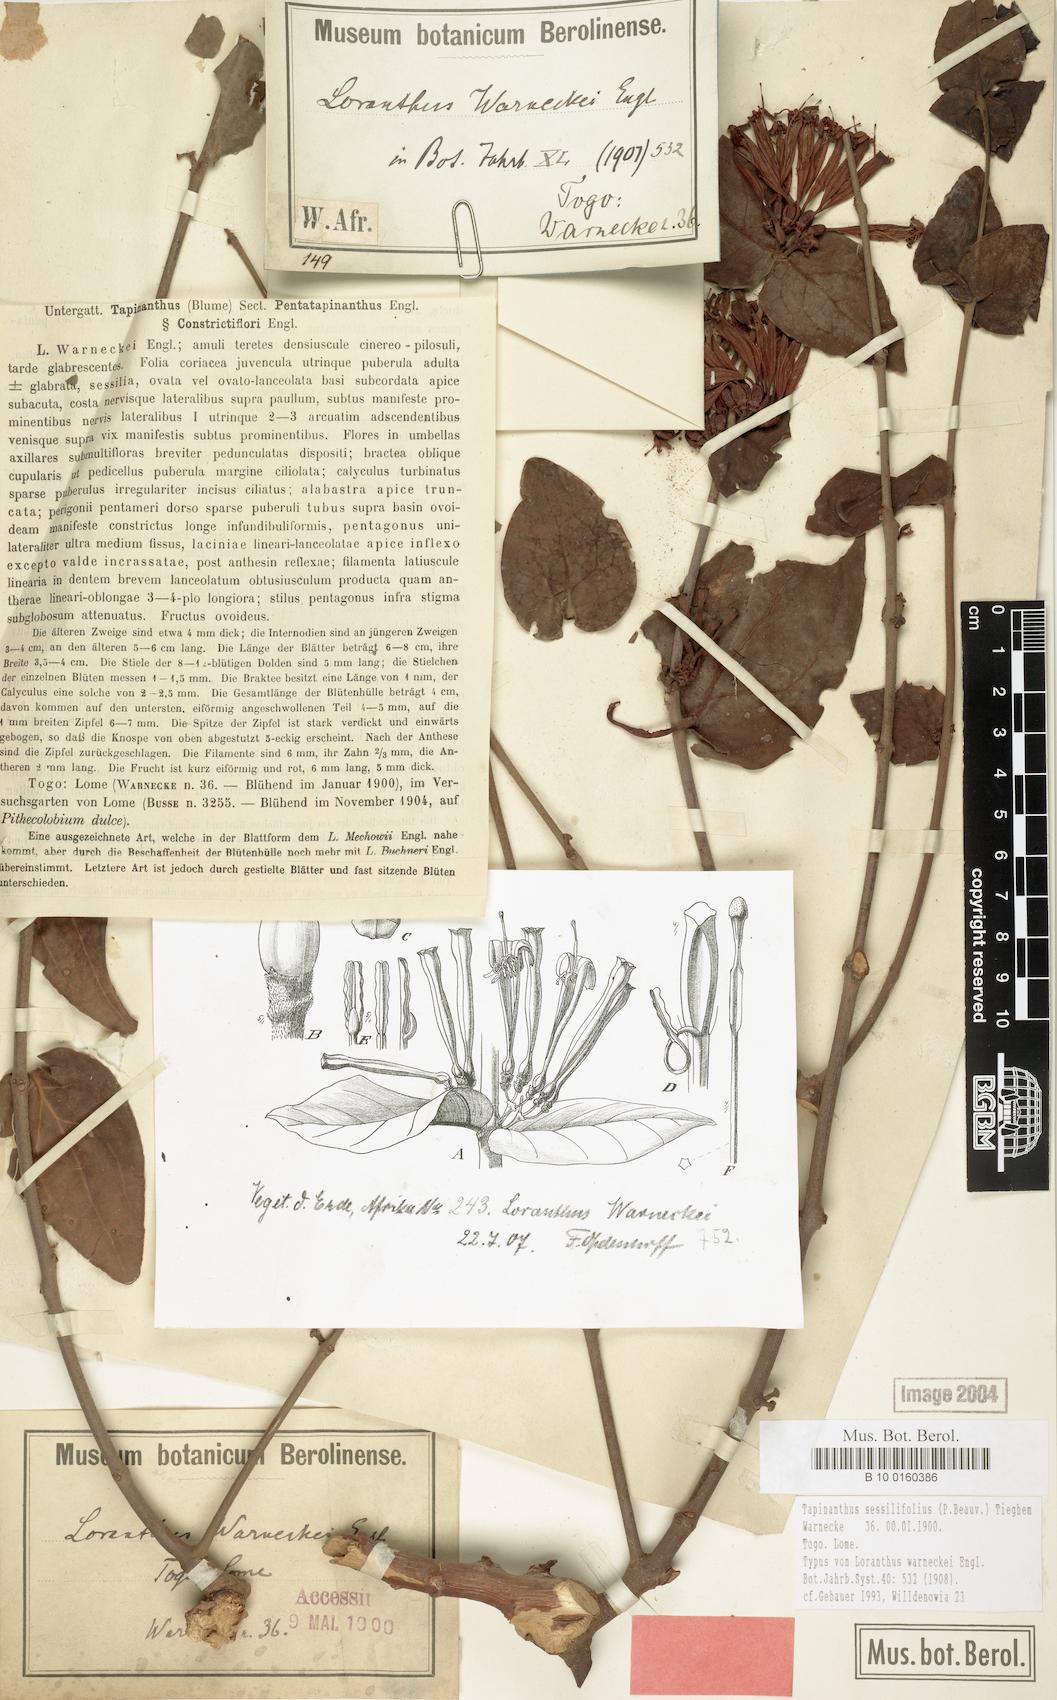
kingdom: Plantae
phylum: Tracheophyta
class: Magnoliopsida
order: Santalales
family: Loranthaceae
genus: Tapinanthus
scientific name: Tapinanthus sessilifolius
